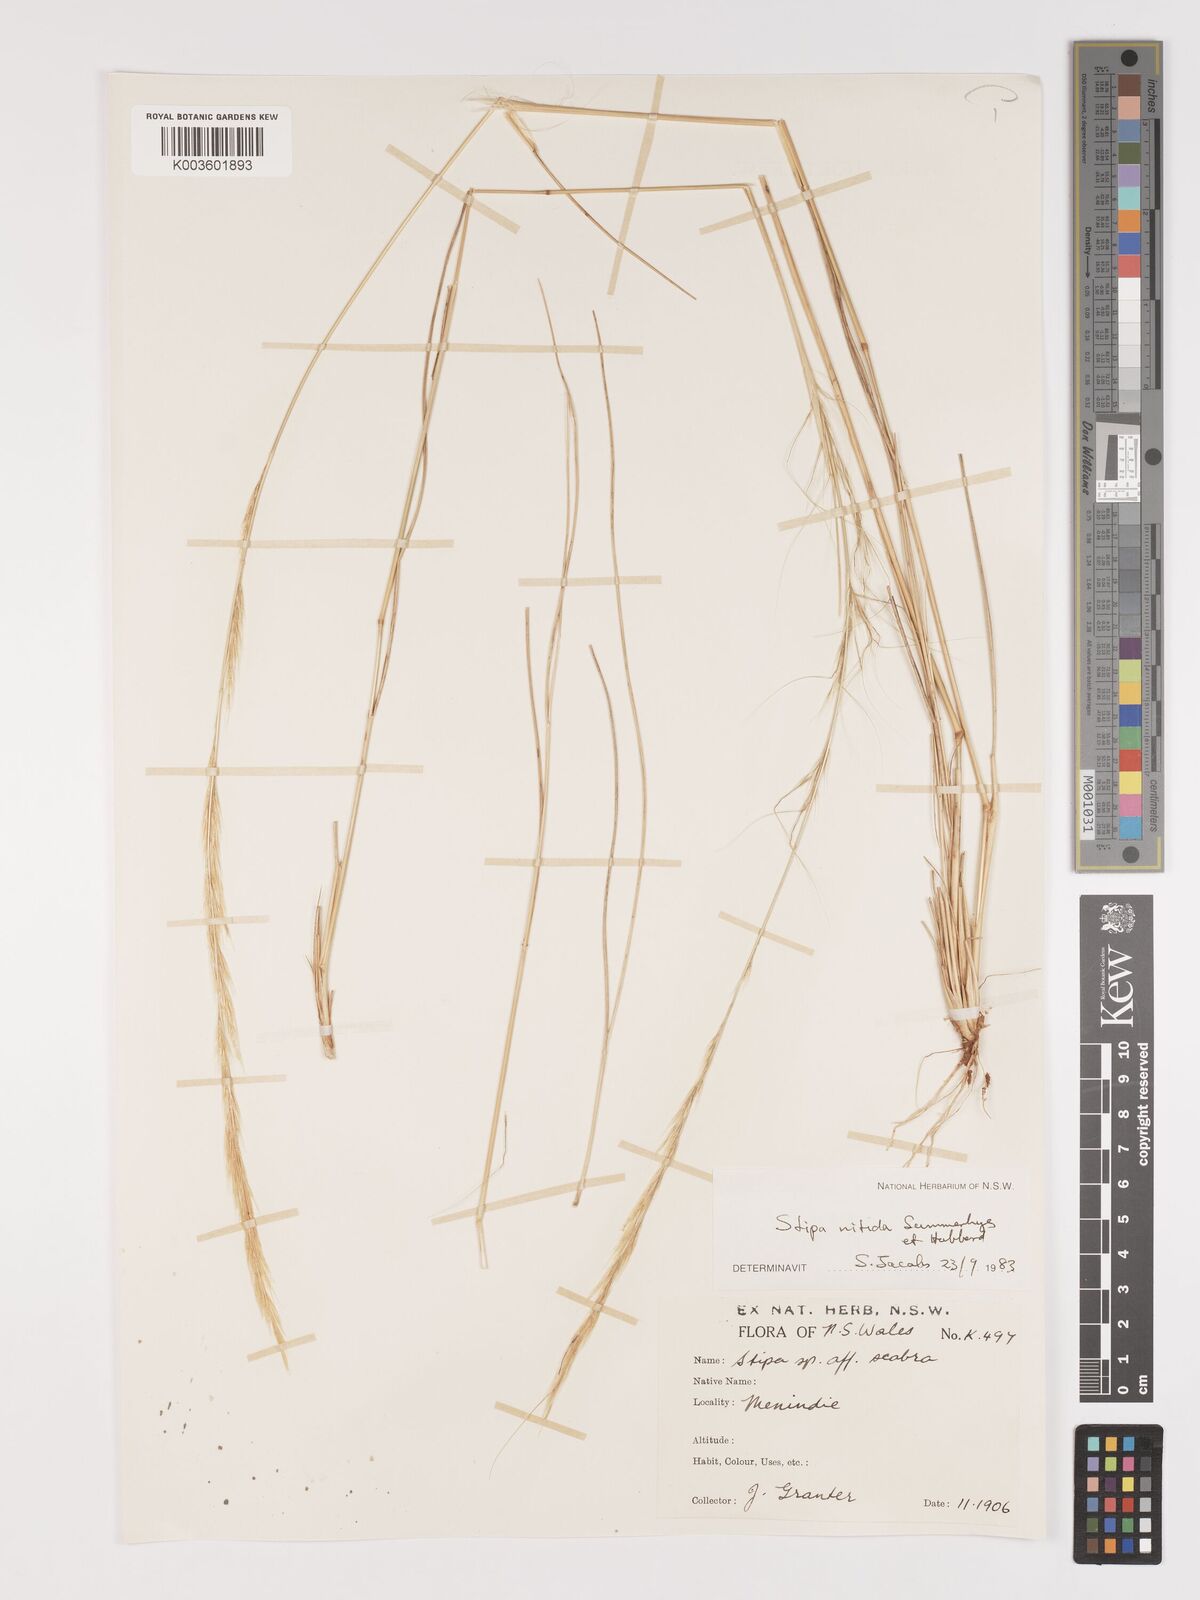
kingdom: Plantae
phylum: Tracheophyta
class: Liliopsida
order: Poales
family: Poaceae
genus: Austrostipa
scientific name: Austrostipa nitida
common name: Balcarra grass
